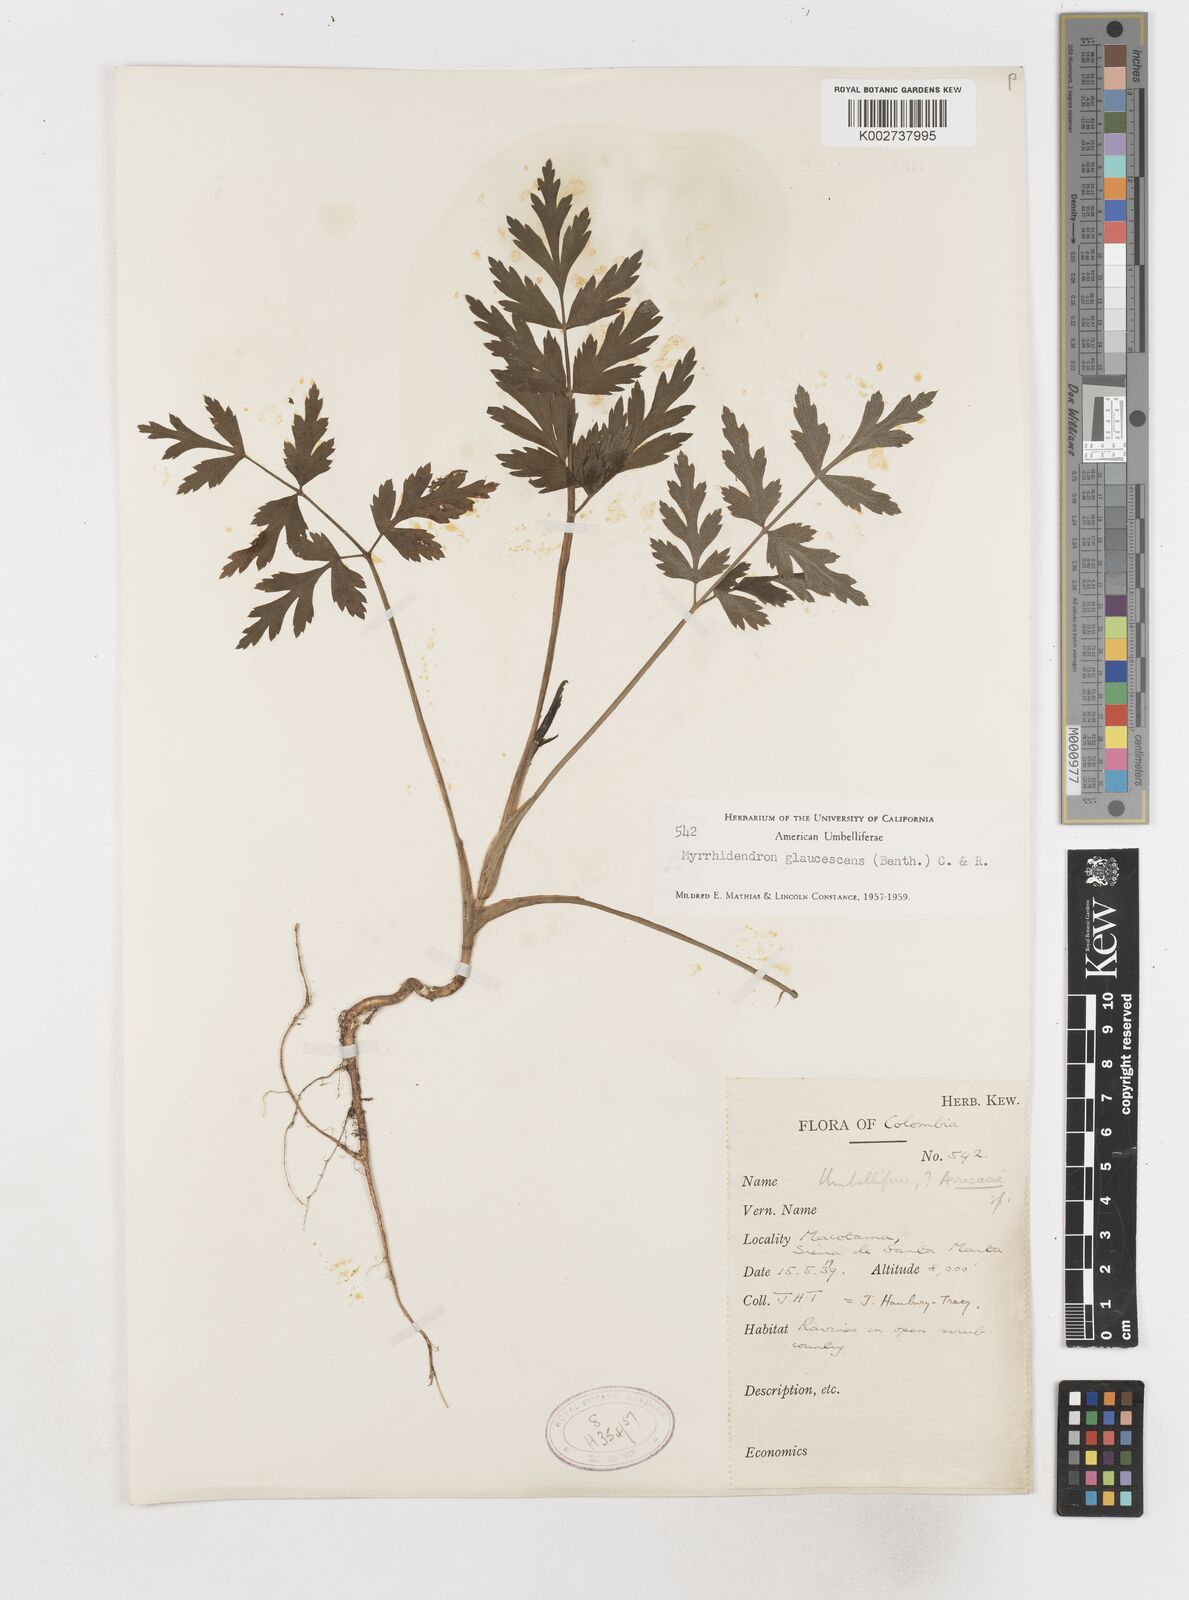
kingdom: Plantae
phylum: Tracheophyta
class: Magnoliopsida
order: Apiales
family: Apiaceae
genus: Myrrhidendron
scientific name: Myrrhidendron glaucescens
